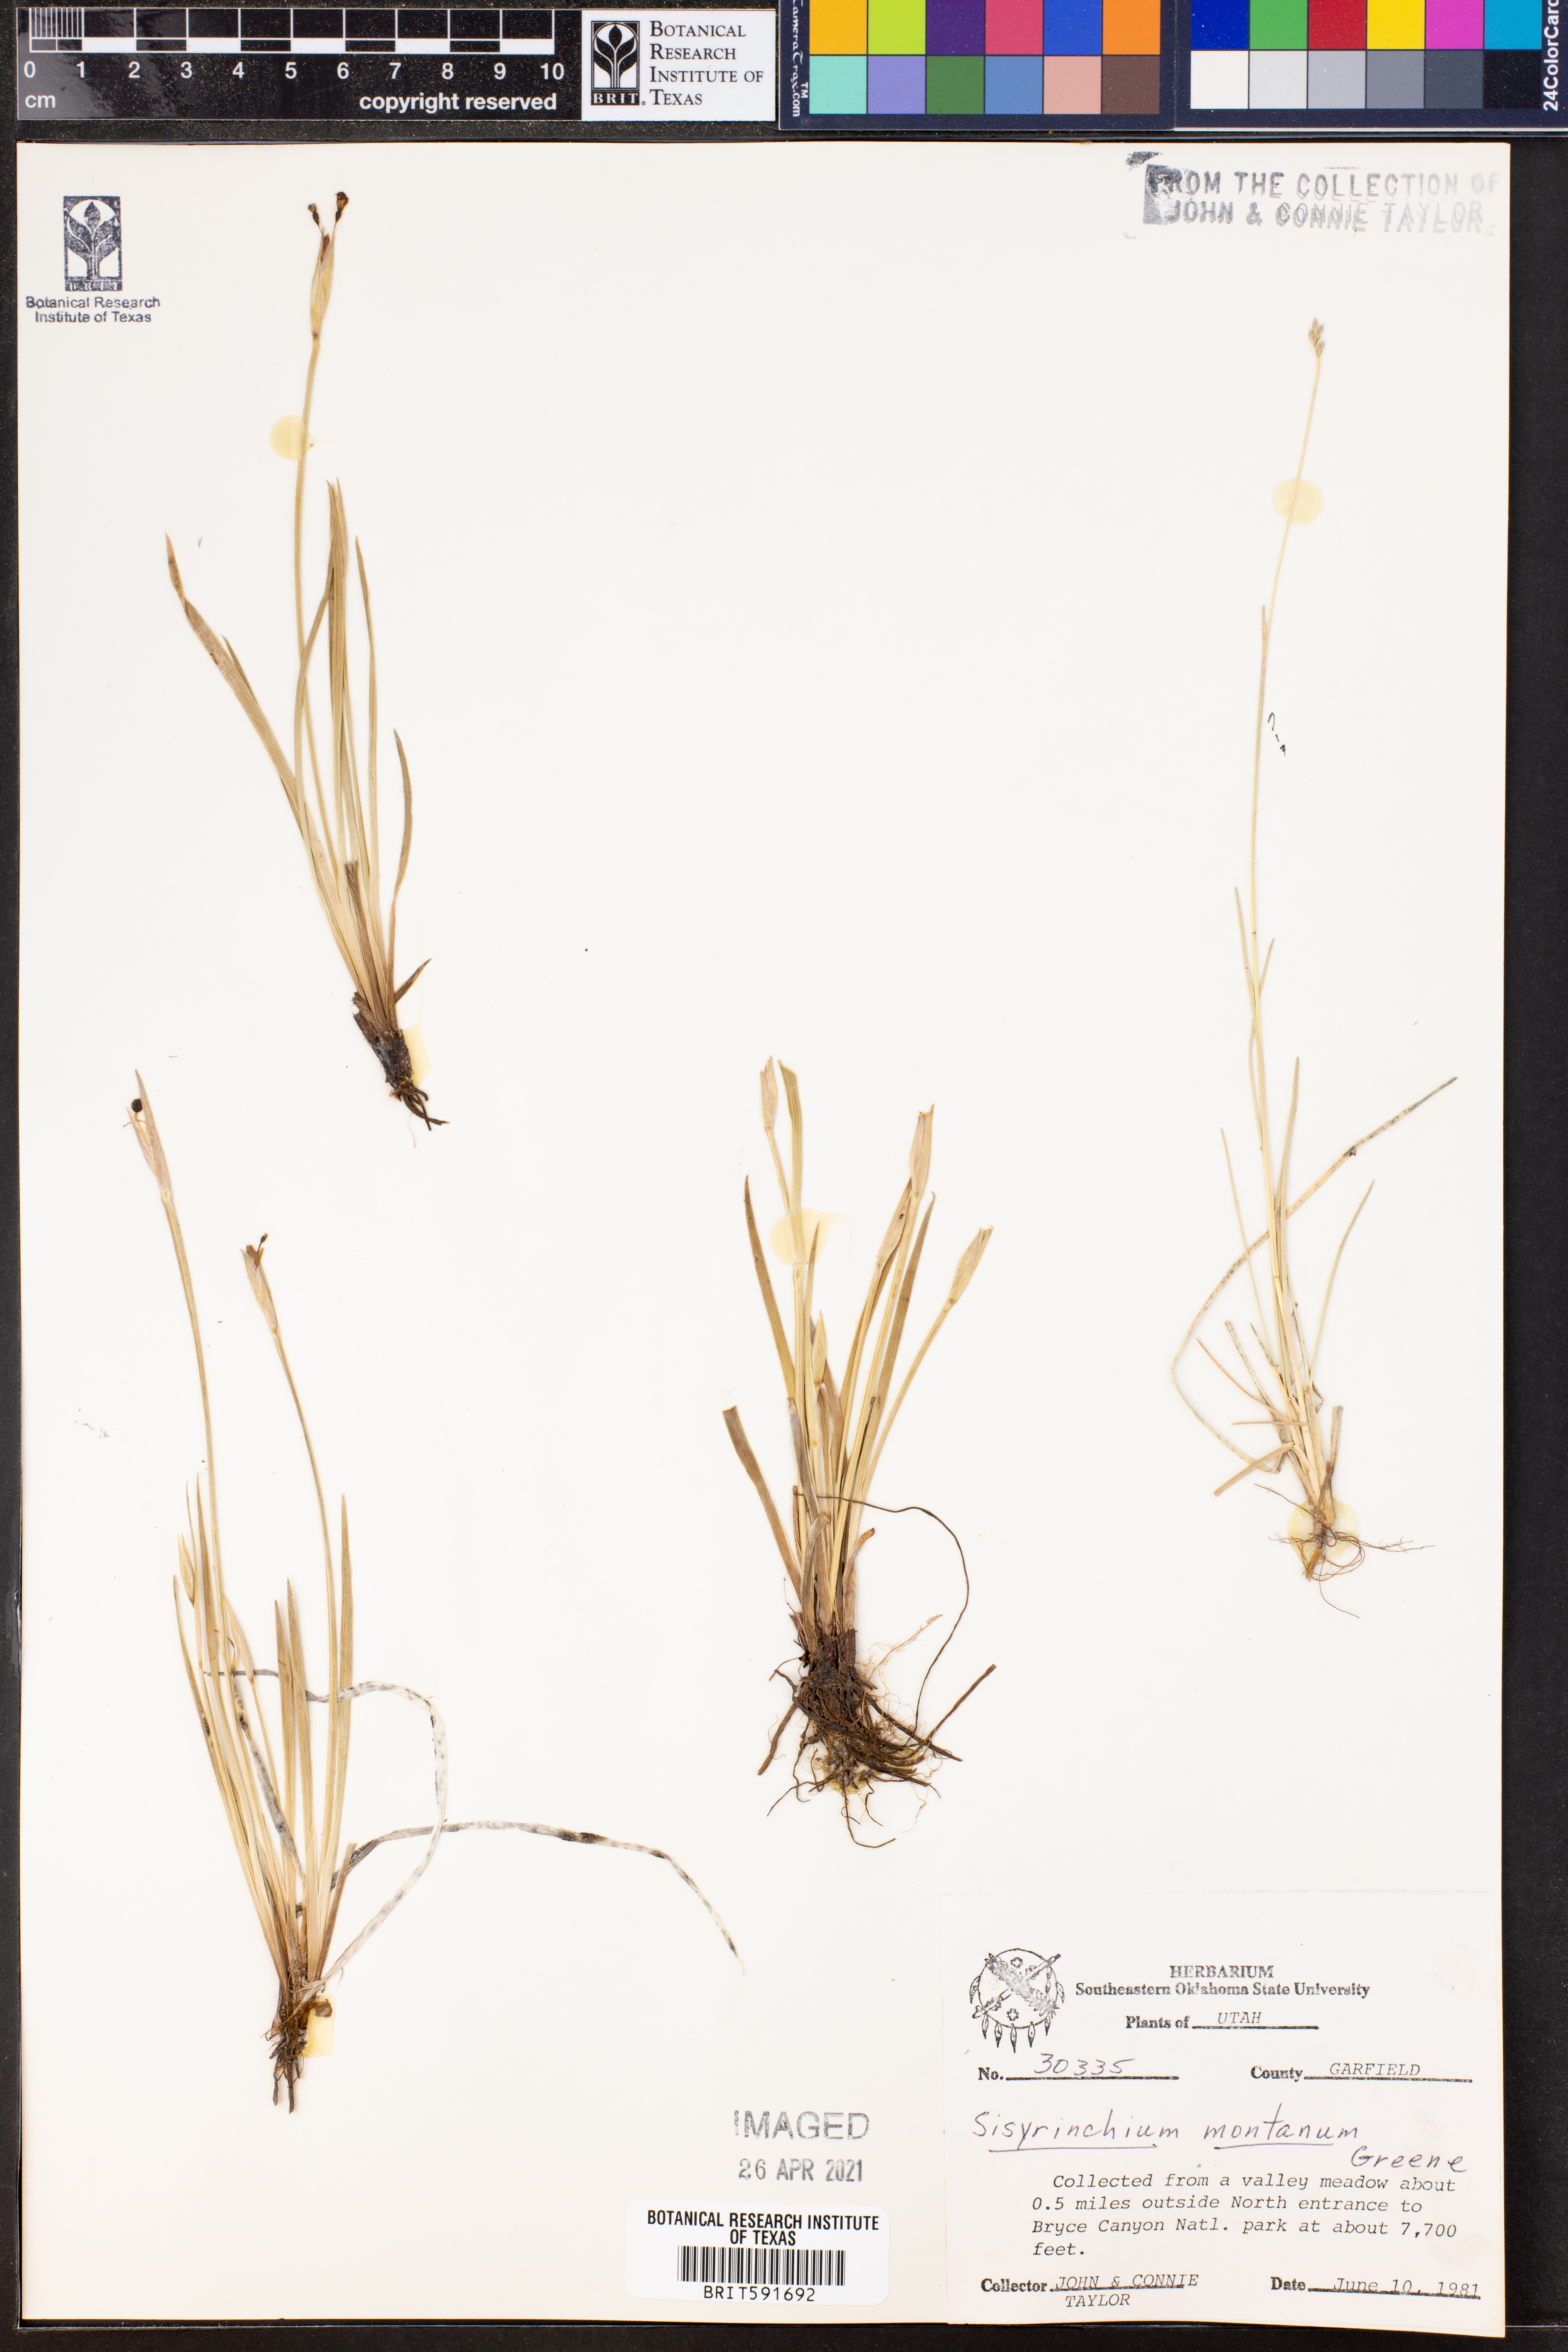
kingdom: Plantae
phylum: Tracheophyta
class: Liliopsida
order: Asparagales
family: Iridaceae
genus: Sisyrinchium
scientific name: Sisyrinchium montanum
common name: American blue-eyed-grass
